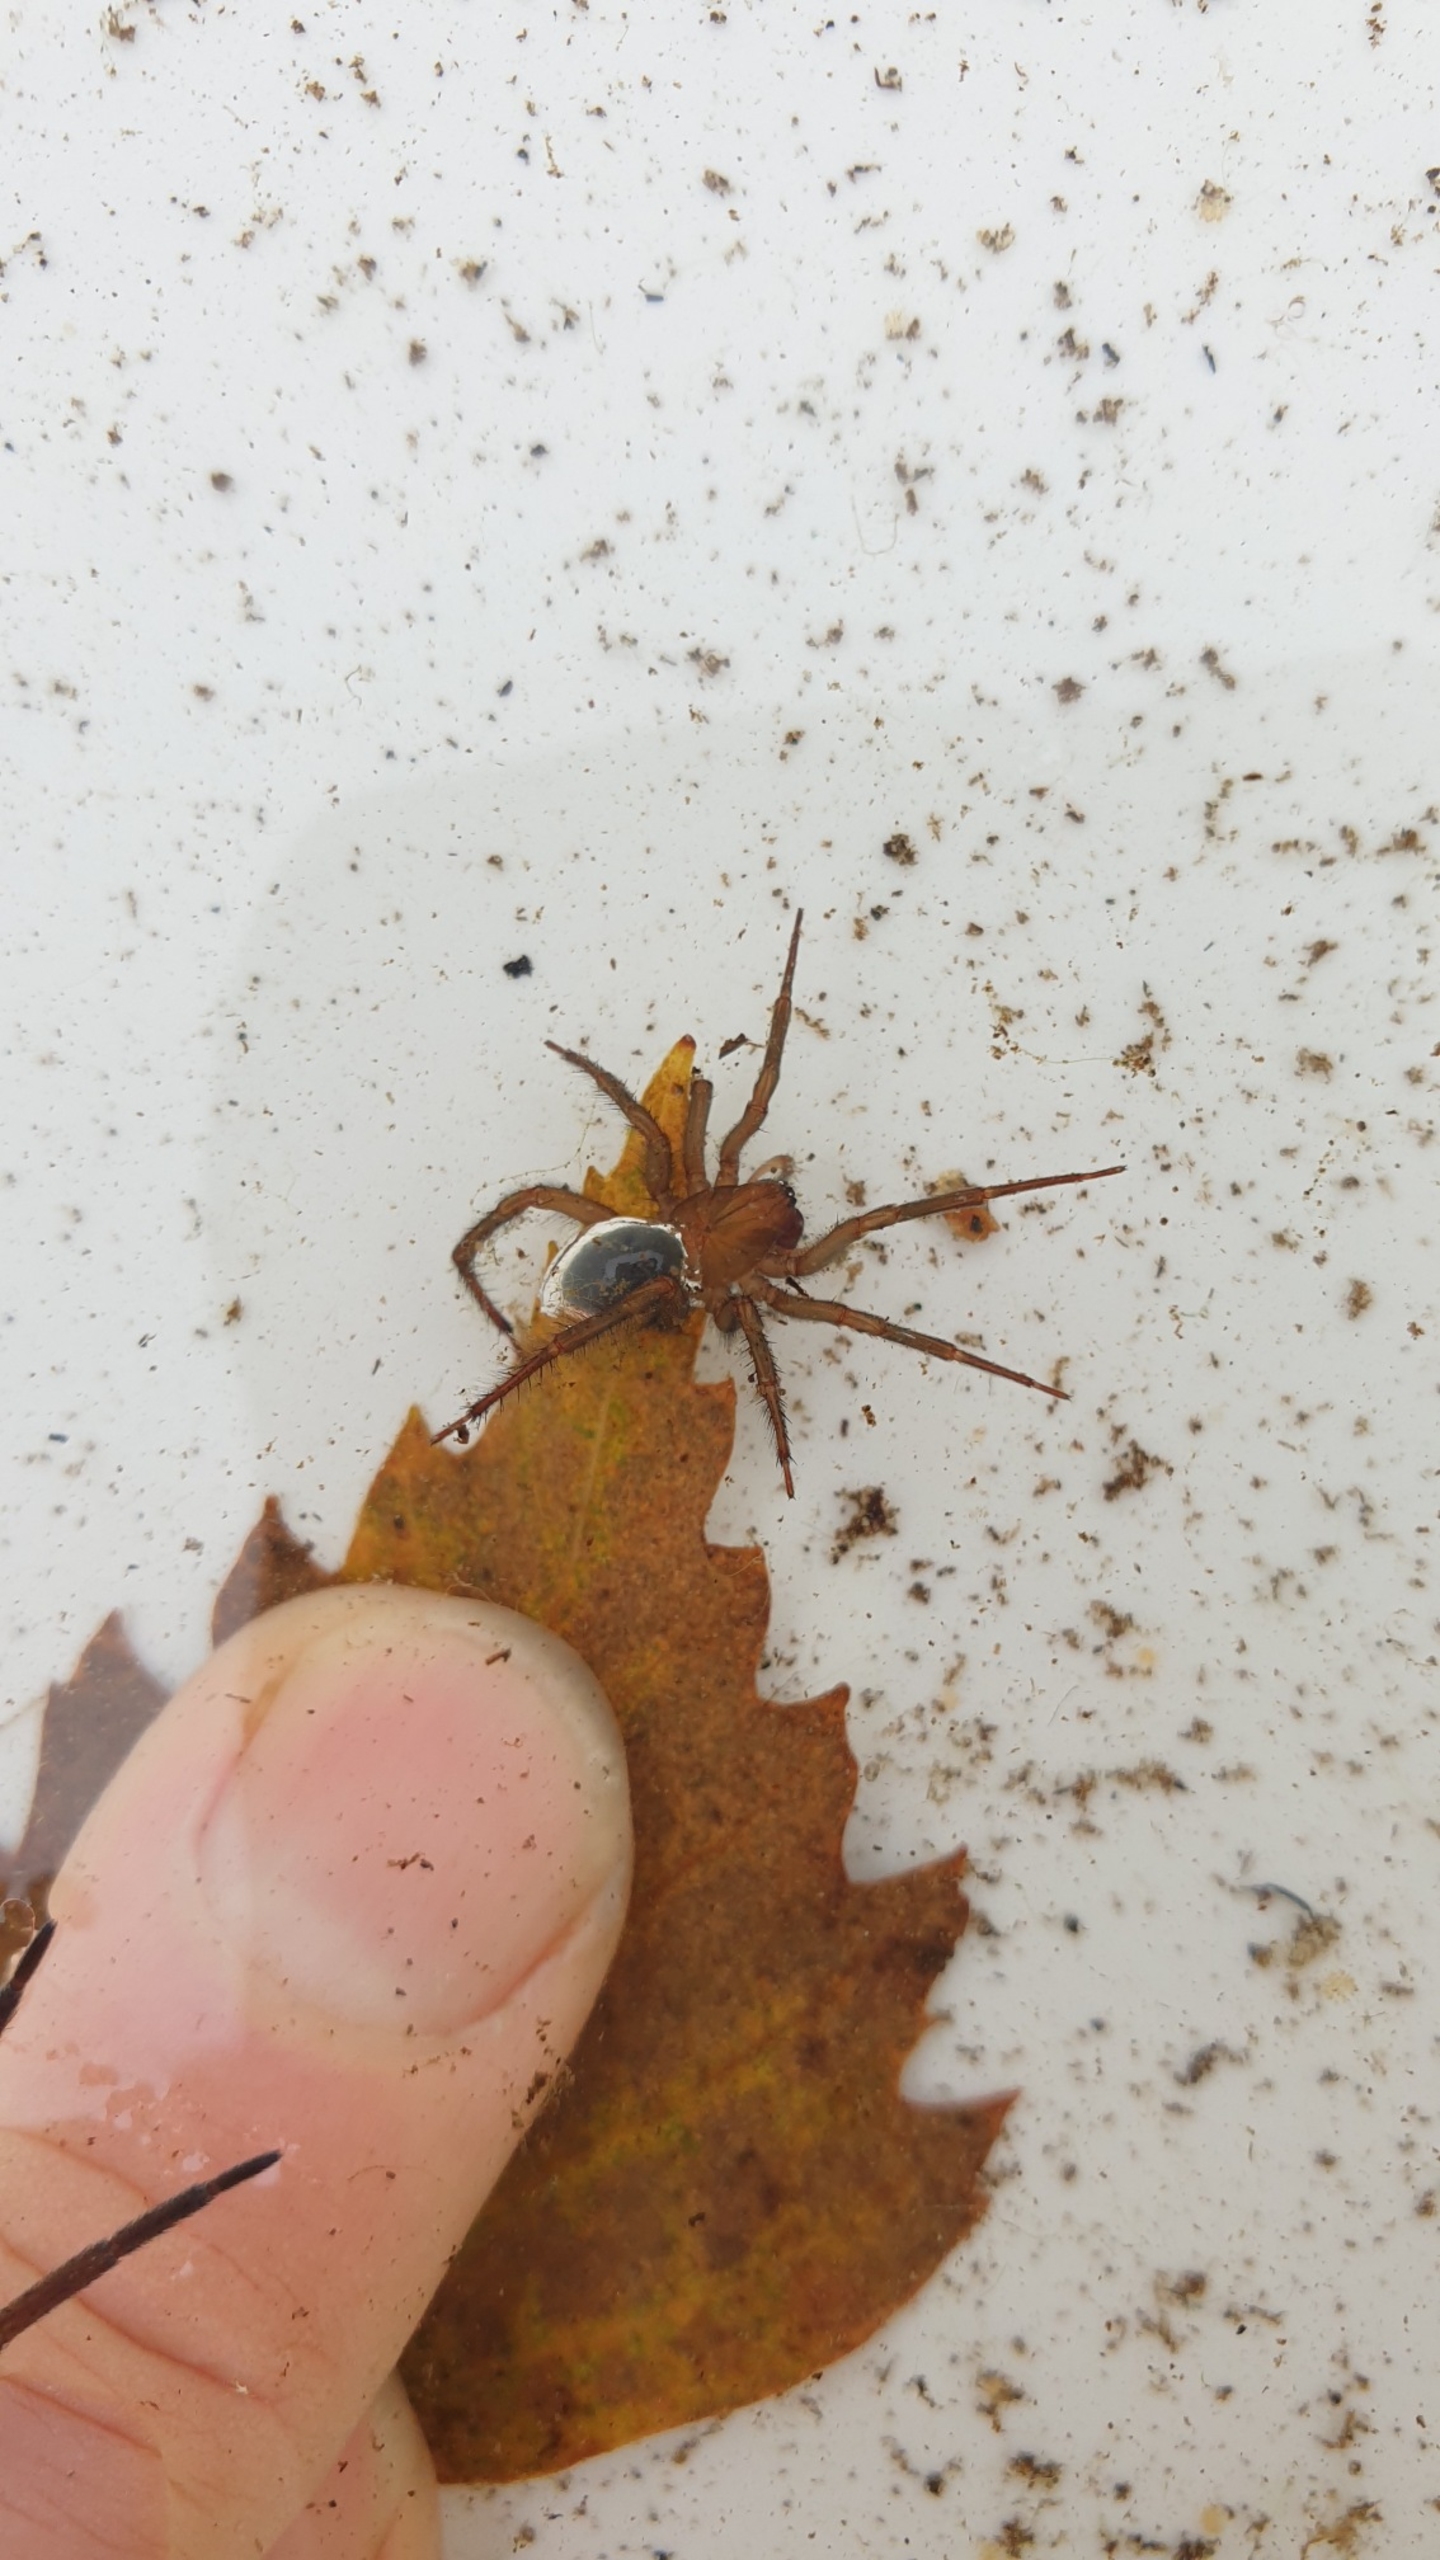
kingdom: Animalia
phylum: Arthropoda
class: Arachnida
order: Araneae
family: Dictynidae
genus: Argyroneta
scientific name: Argyroneta aquatica
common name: Vandedderkop
